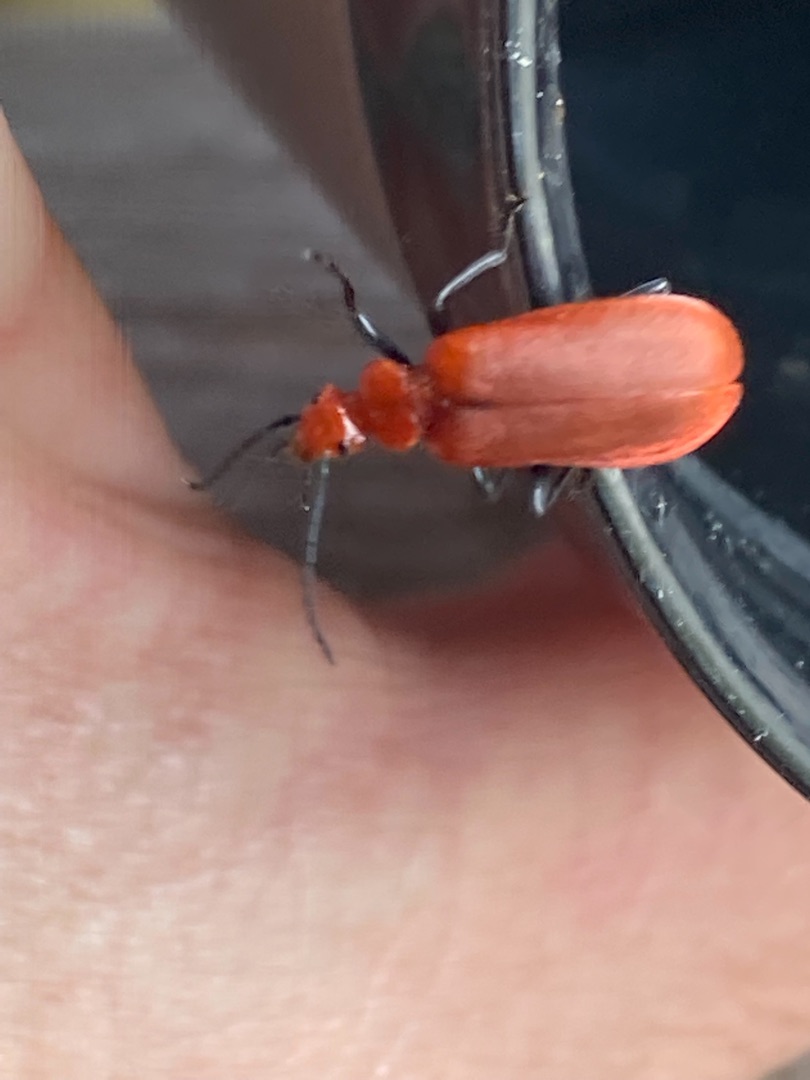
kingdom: Animalia
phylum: Arthropoda
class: Insecta
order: Coleoptera
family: Pyrochroidae
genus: Pyrochroa
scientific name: Pyrochroa serraticornis
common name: Rødhovedet kardinalbille
